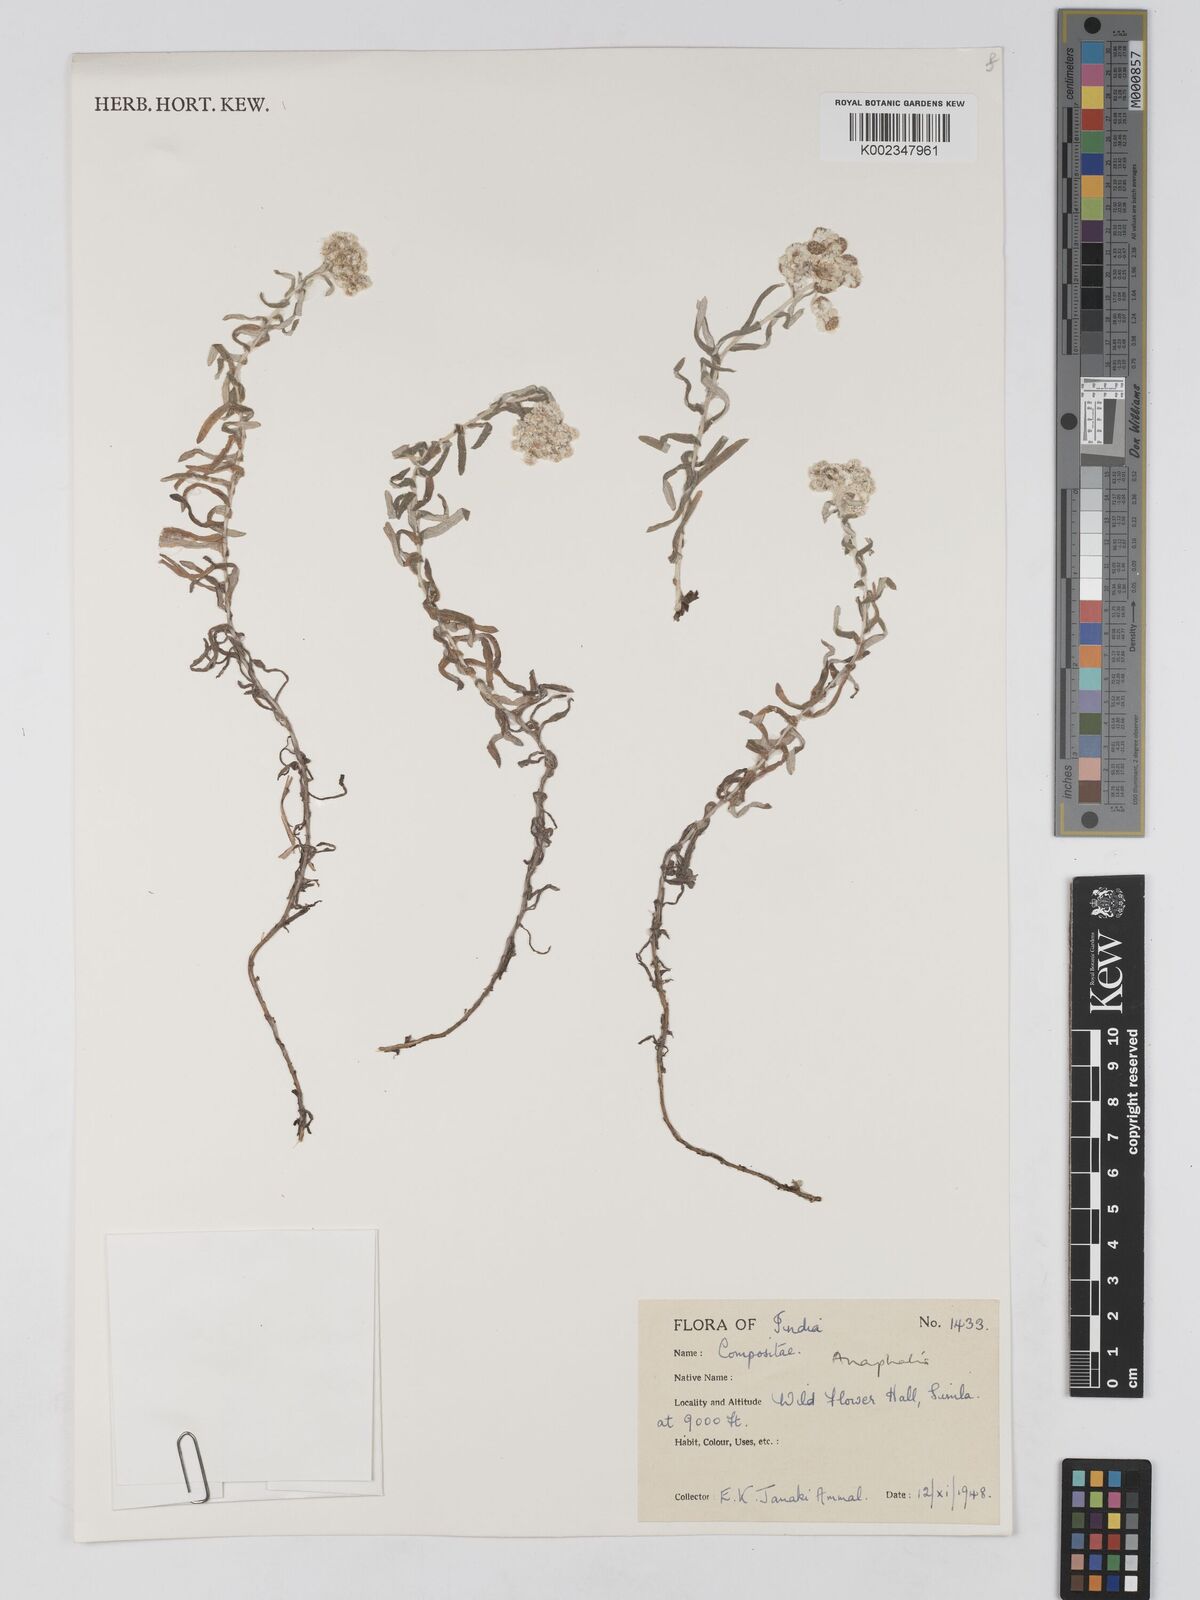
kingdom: Plantae
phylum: Tracheophyta
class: Magnoliopsida
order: Asterales
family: Asteraceae
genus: Anaphalis
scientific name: Anaphalis
